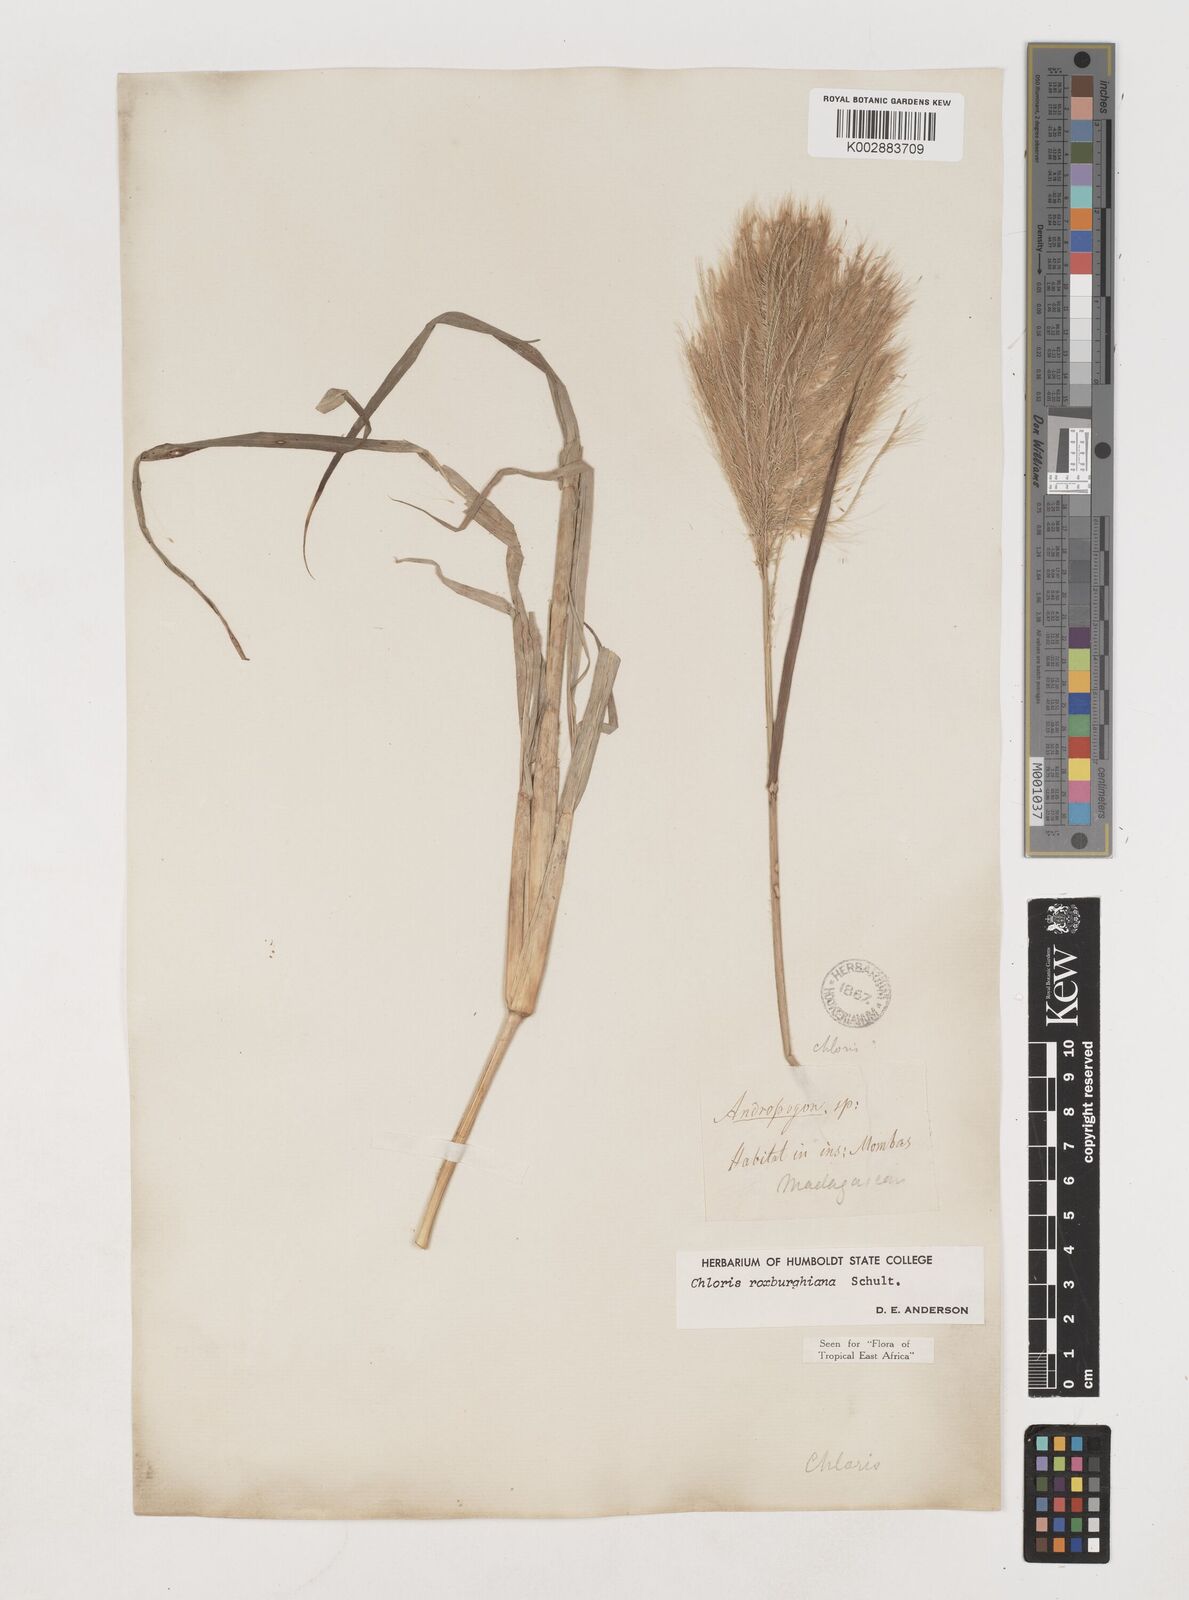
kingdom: Plantae
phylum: Tracheophyta
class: Liliopsida
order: Poales
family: Poaceae
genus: Tetrapogon
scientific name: Tetrapogon roxburghiana
